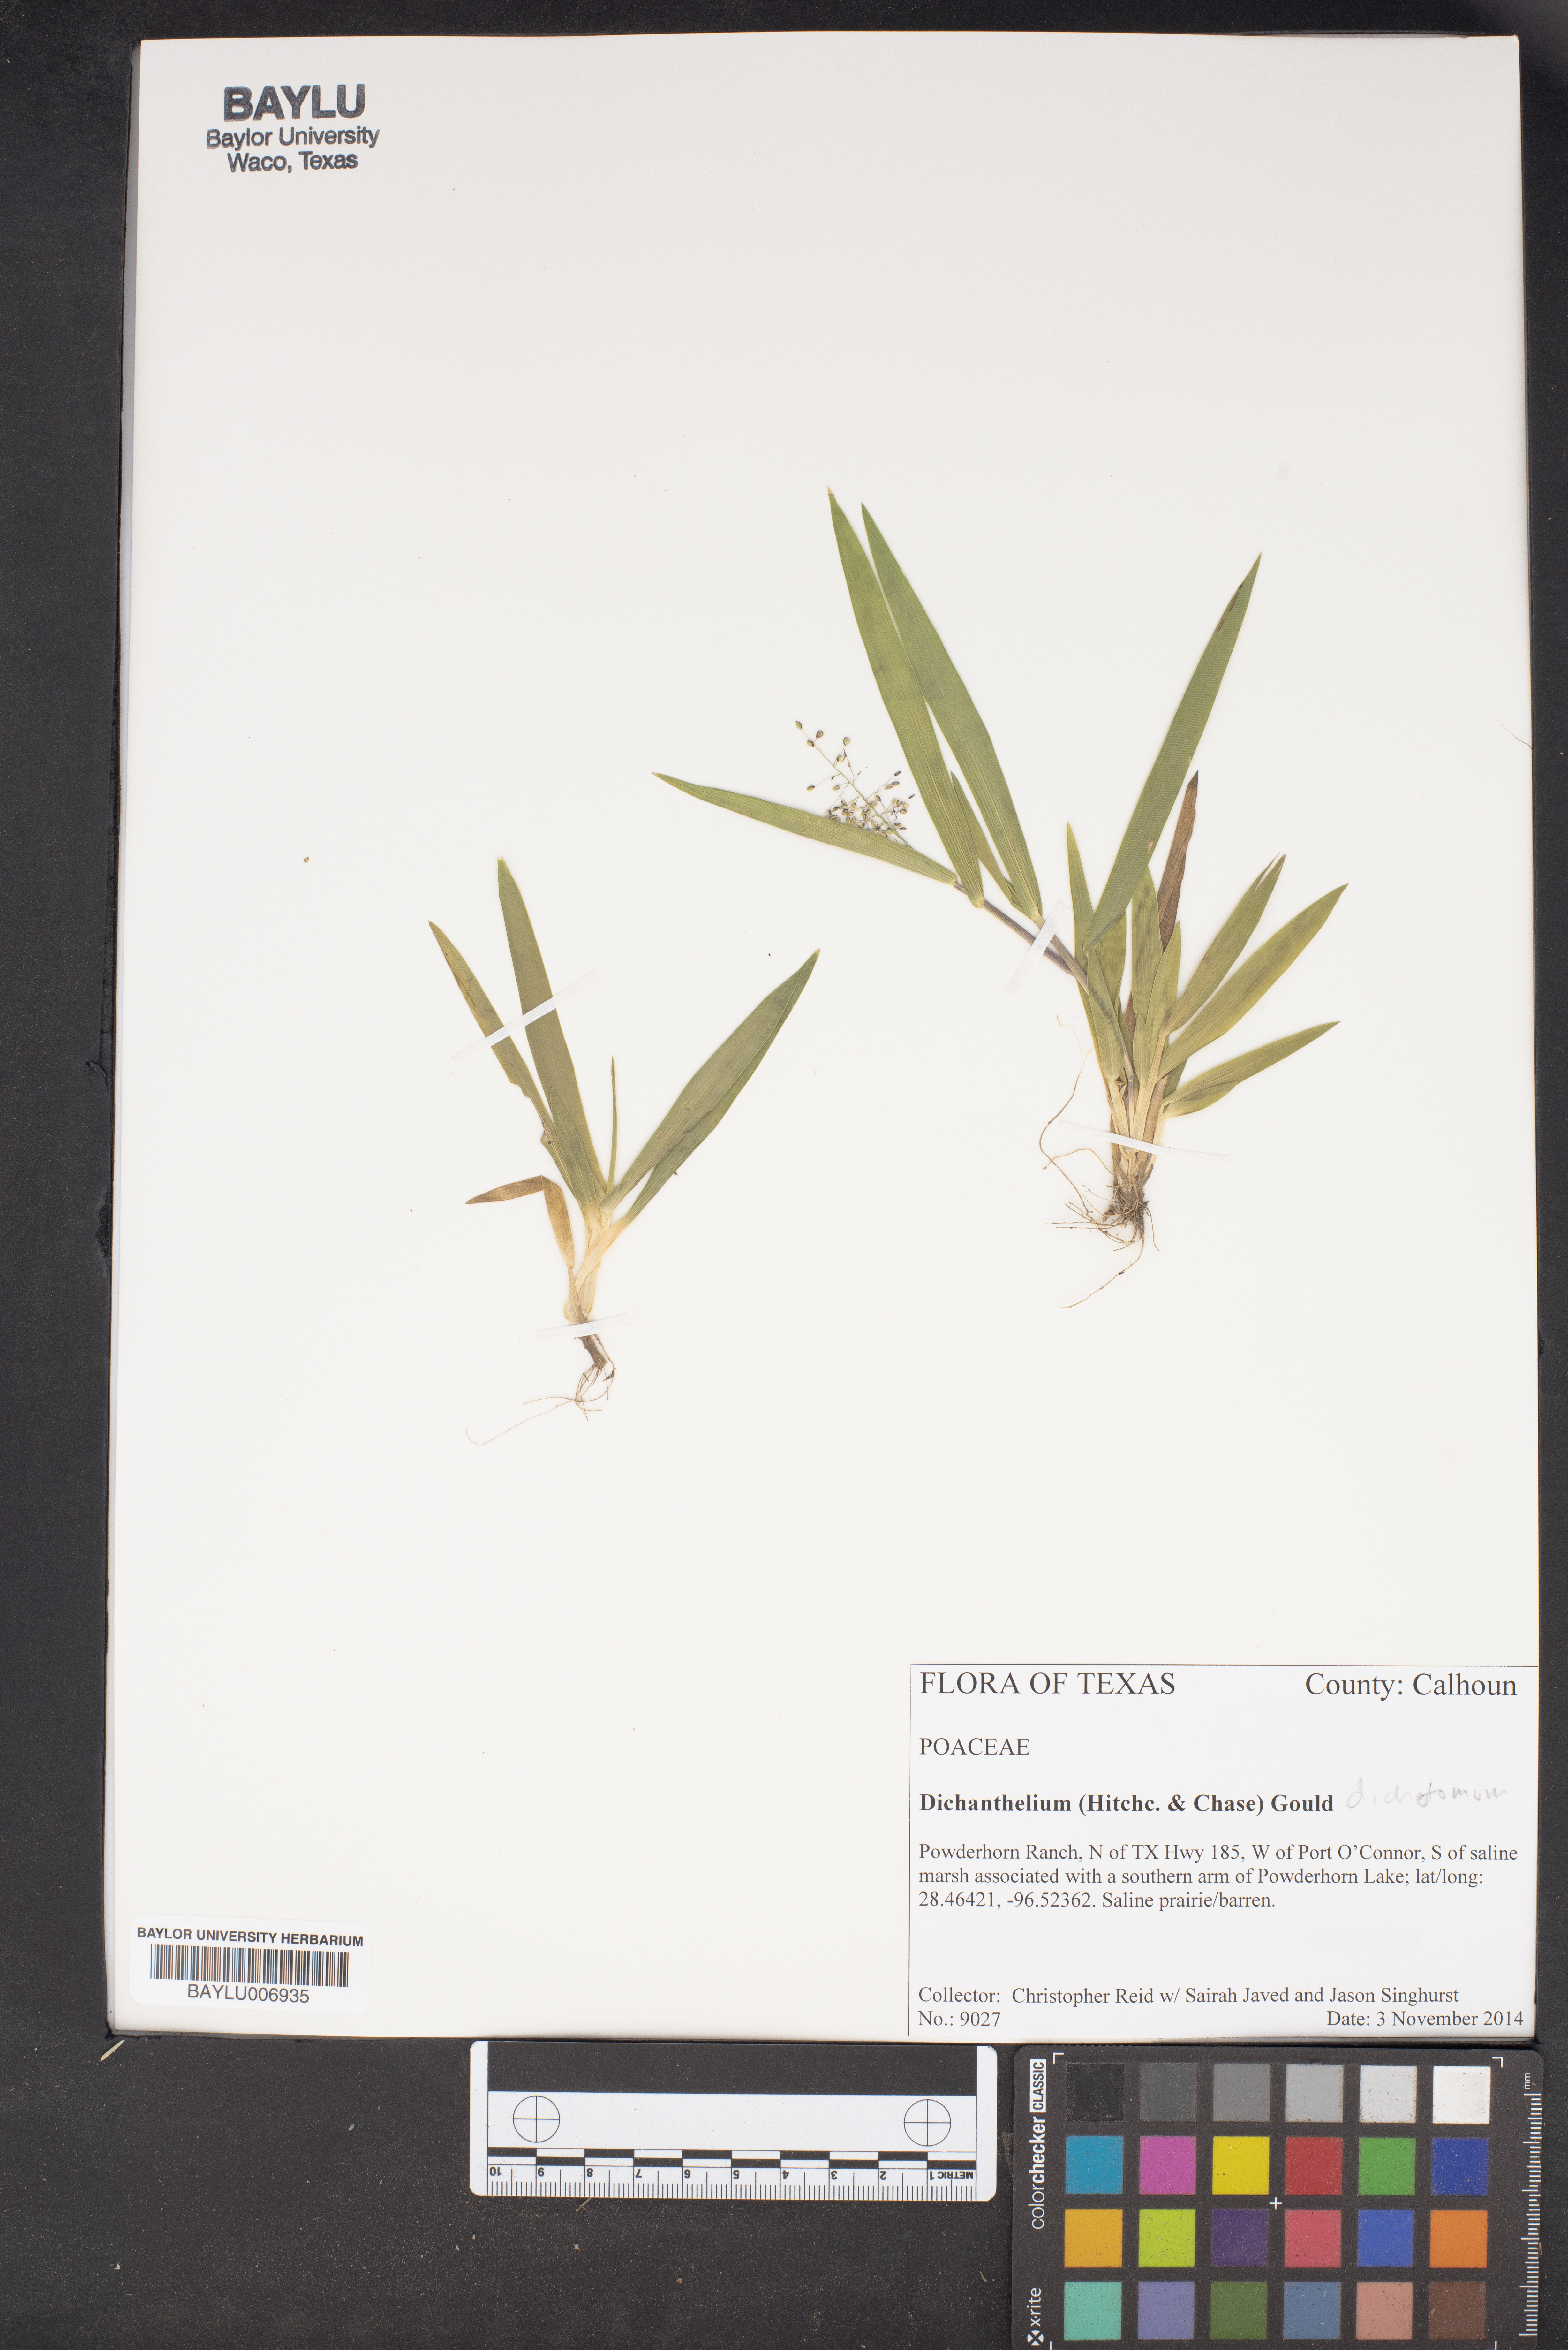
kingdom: Plantae
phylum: Tracheophyta
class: Liliopsida
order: Poales
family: Poaceae
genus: Dichanthelium
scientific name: Dichanthelium dichotomum
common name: Cypress panicgrass
